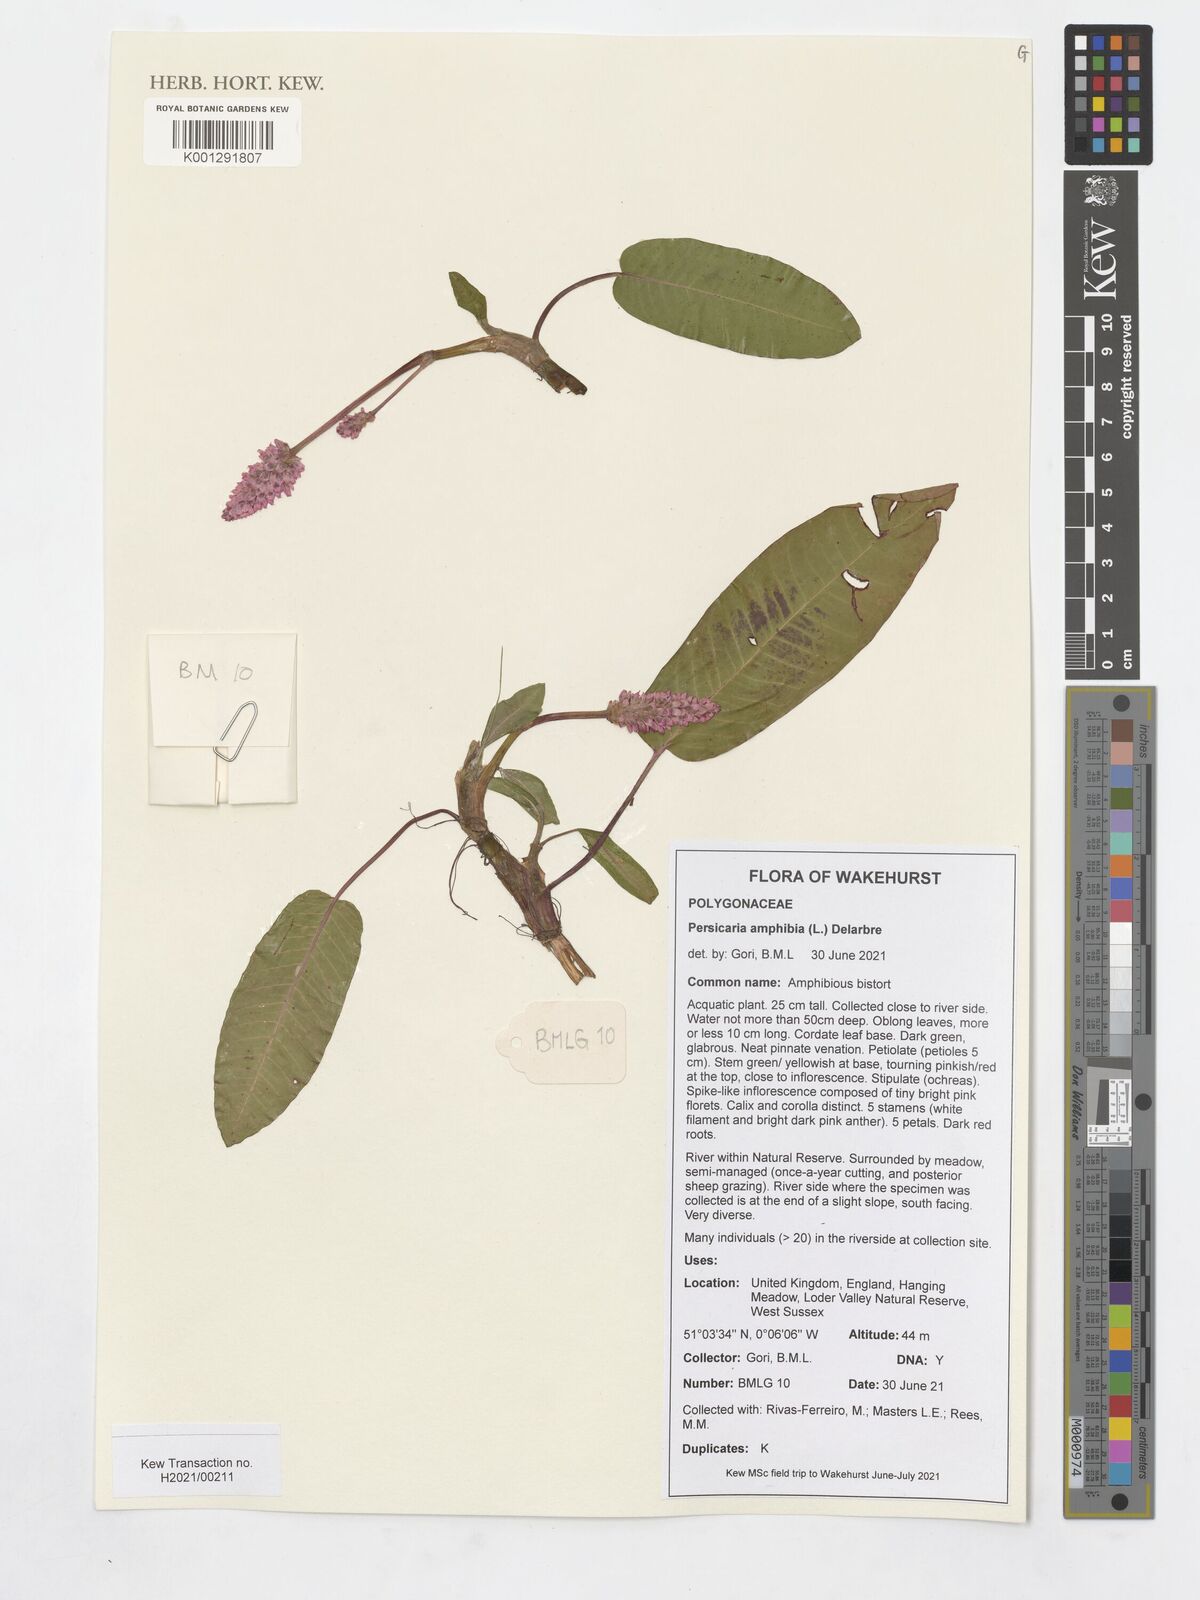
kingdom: Plantae
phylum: Tracheophyta
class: Magnoliopsida
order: Caryophyllales
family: Polygonaceae
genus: Persicaria
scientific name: Persicaria amphibia
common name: Amphibious bistort
